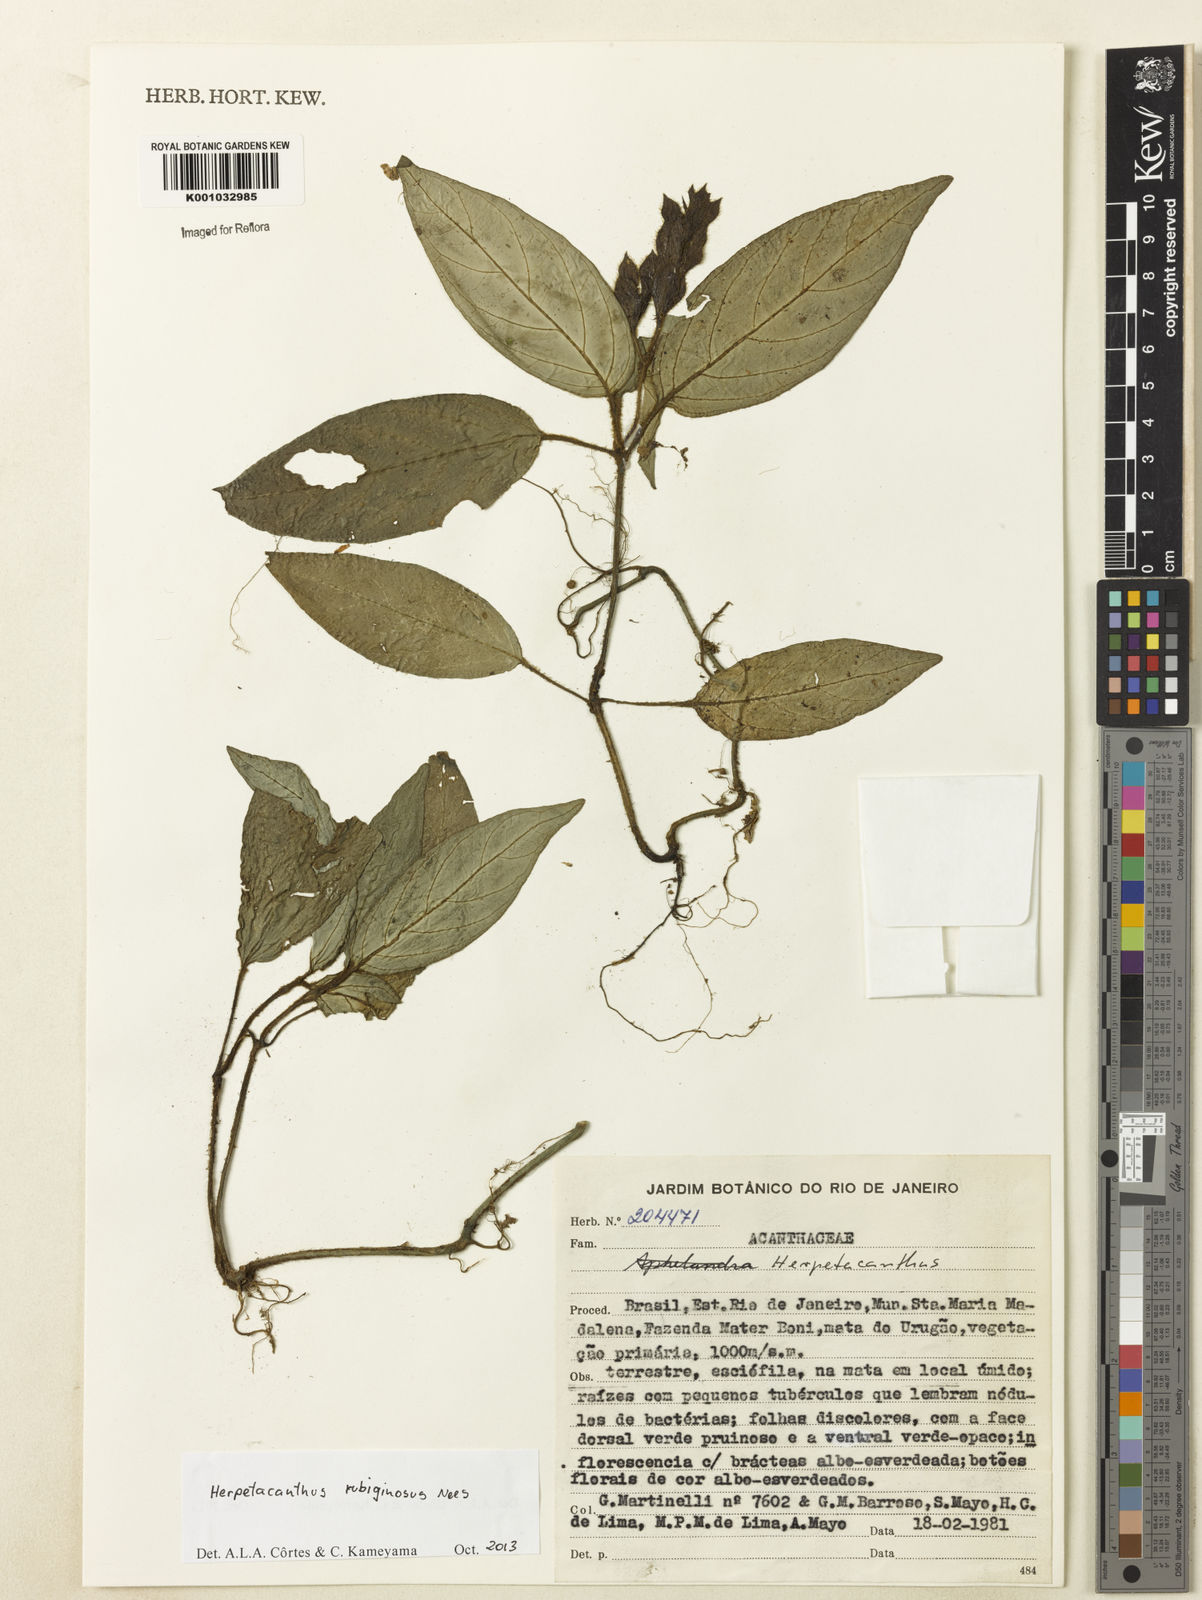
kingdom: Plantae
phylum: Tracheophyta
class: Magnoliopsida
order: Lamiales
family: Acanthaceae
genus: Herpetacanthus
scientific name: Herpetacanthus rubiginosus
